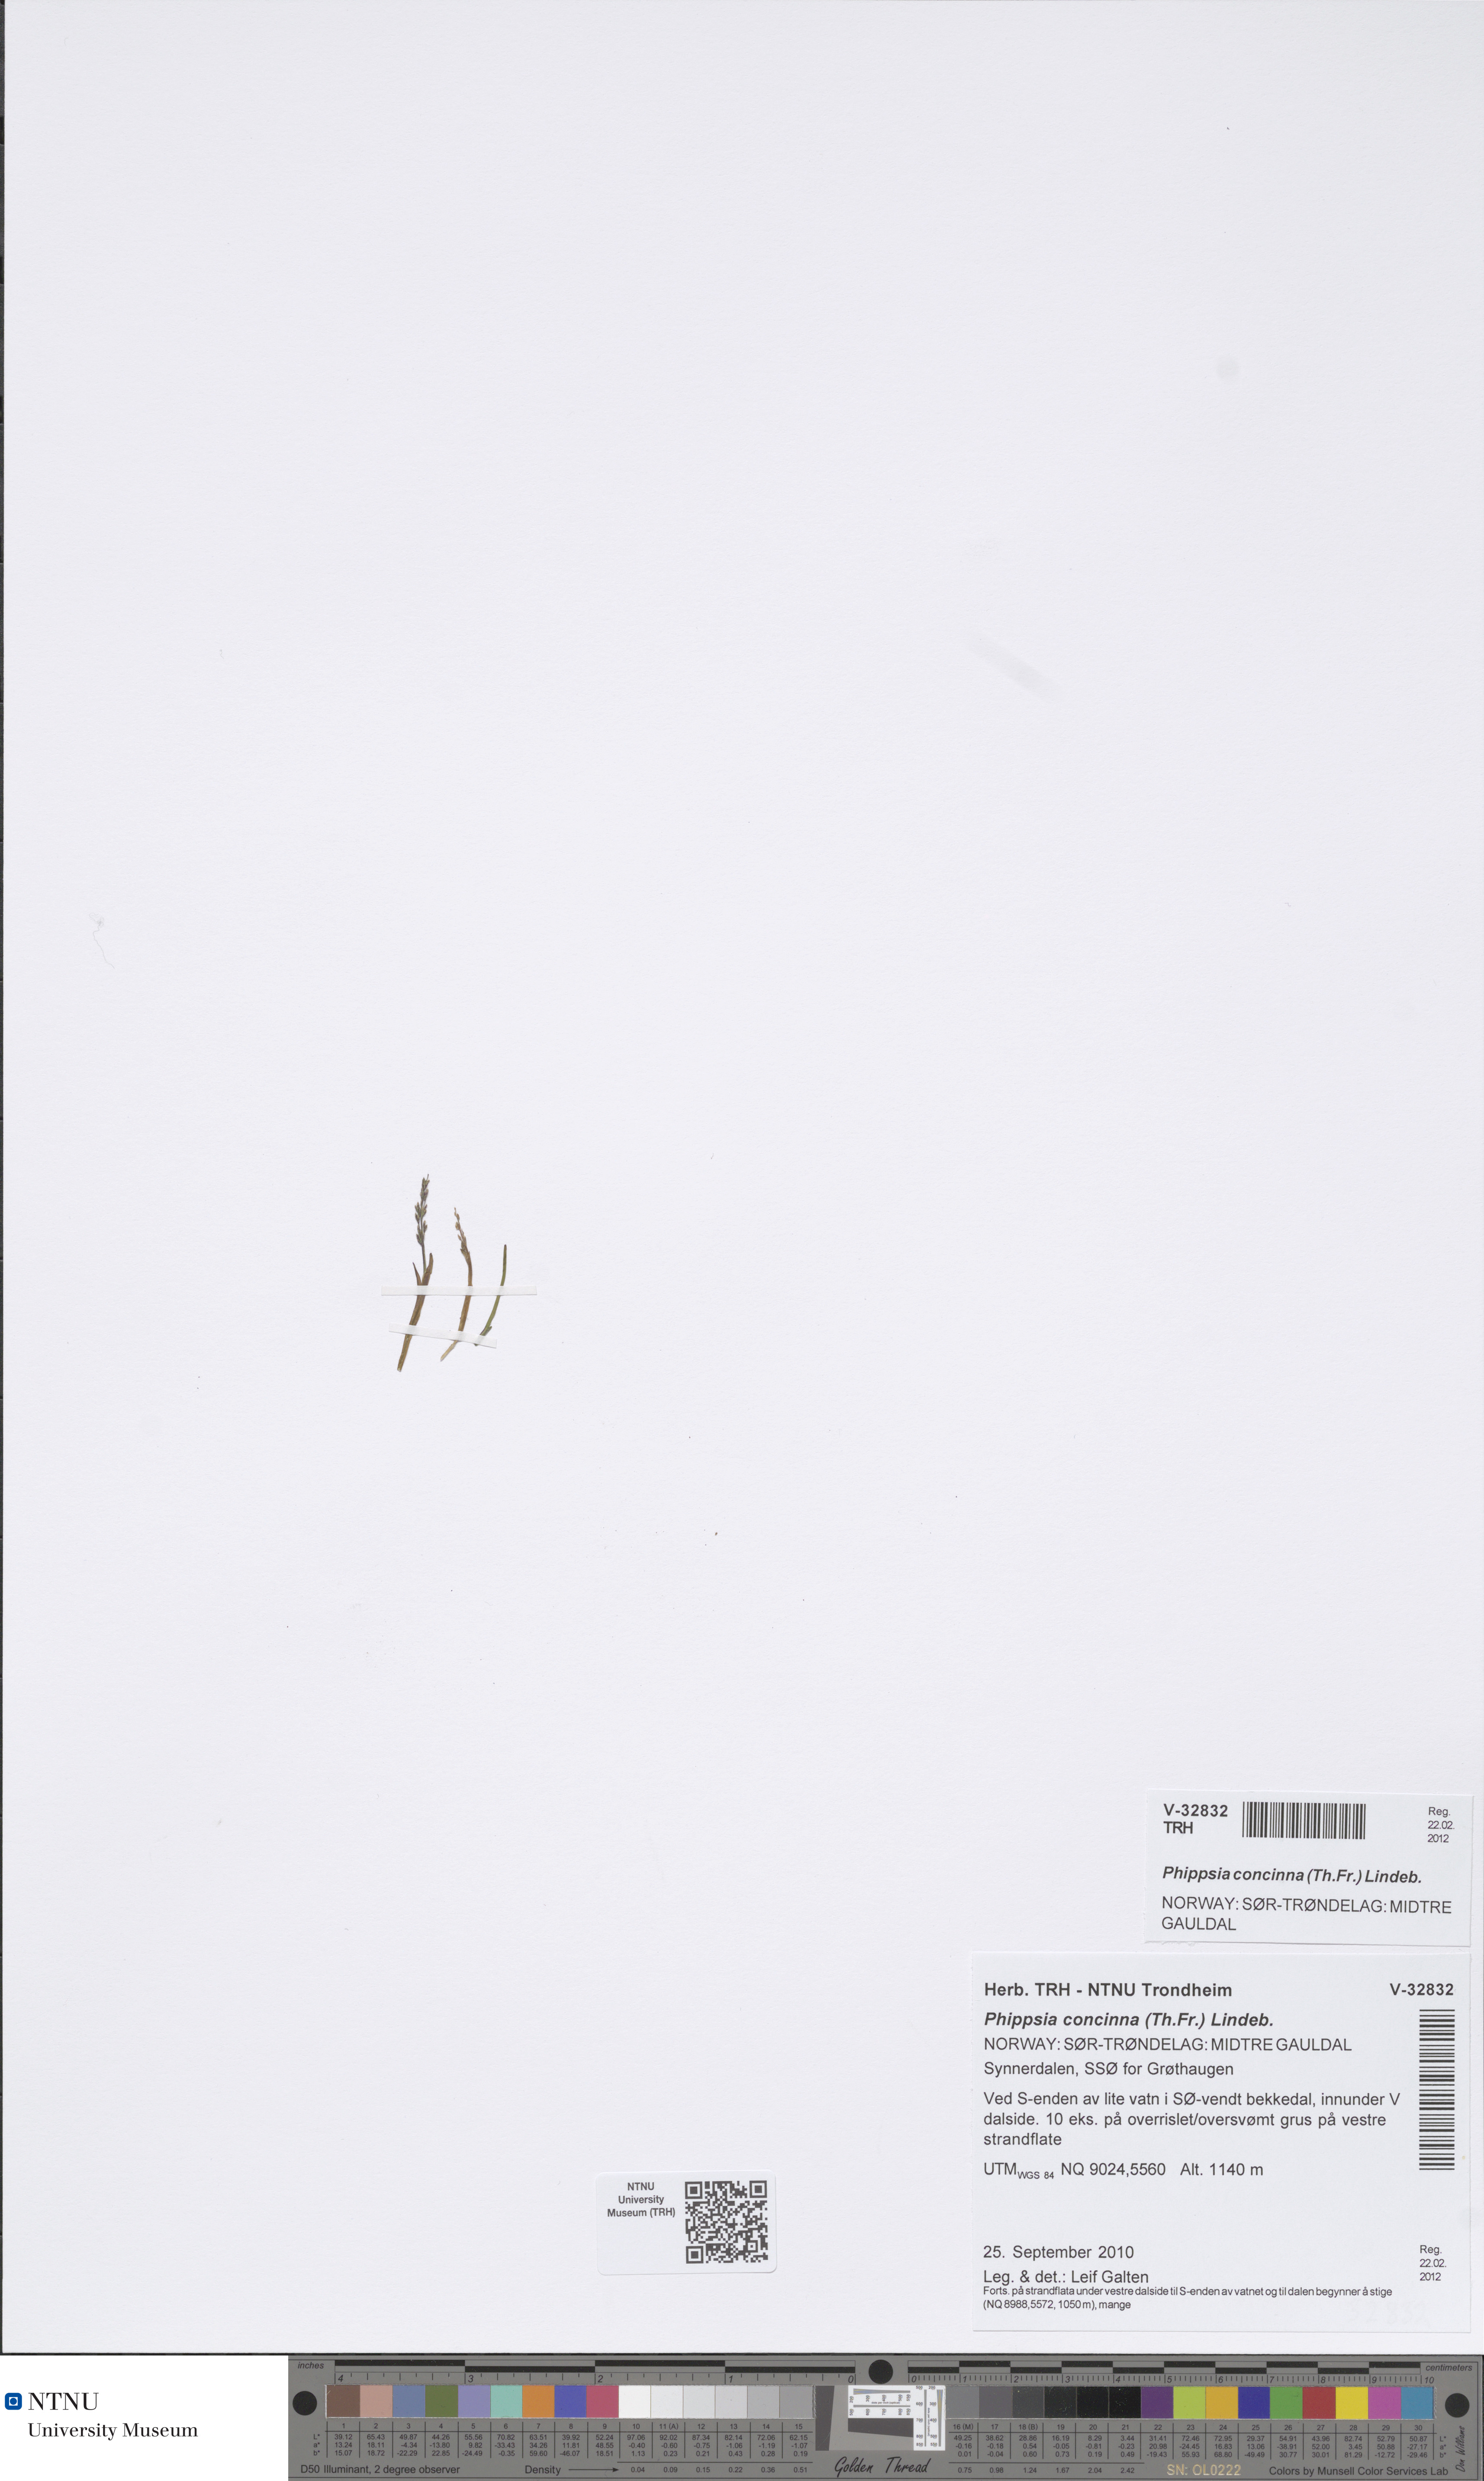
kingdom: Plantae
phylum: Tracheophyta
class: Liliopsida
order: Poales
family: Poaceae
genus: Phippsia
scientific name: Phippsia concinna
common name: Snowgrass
